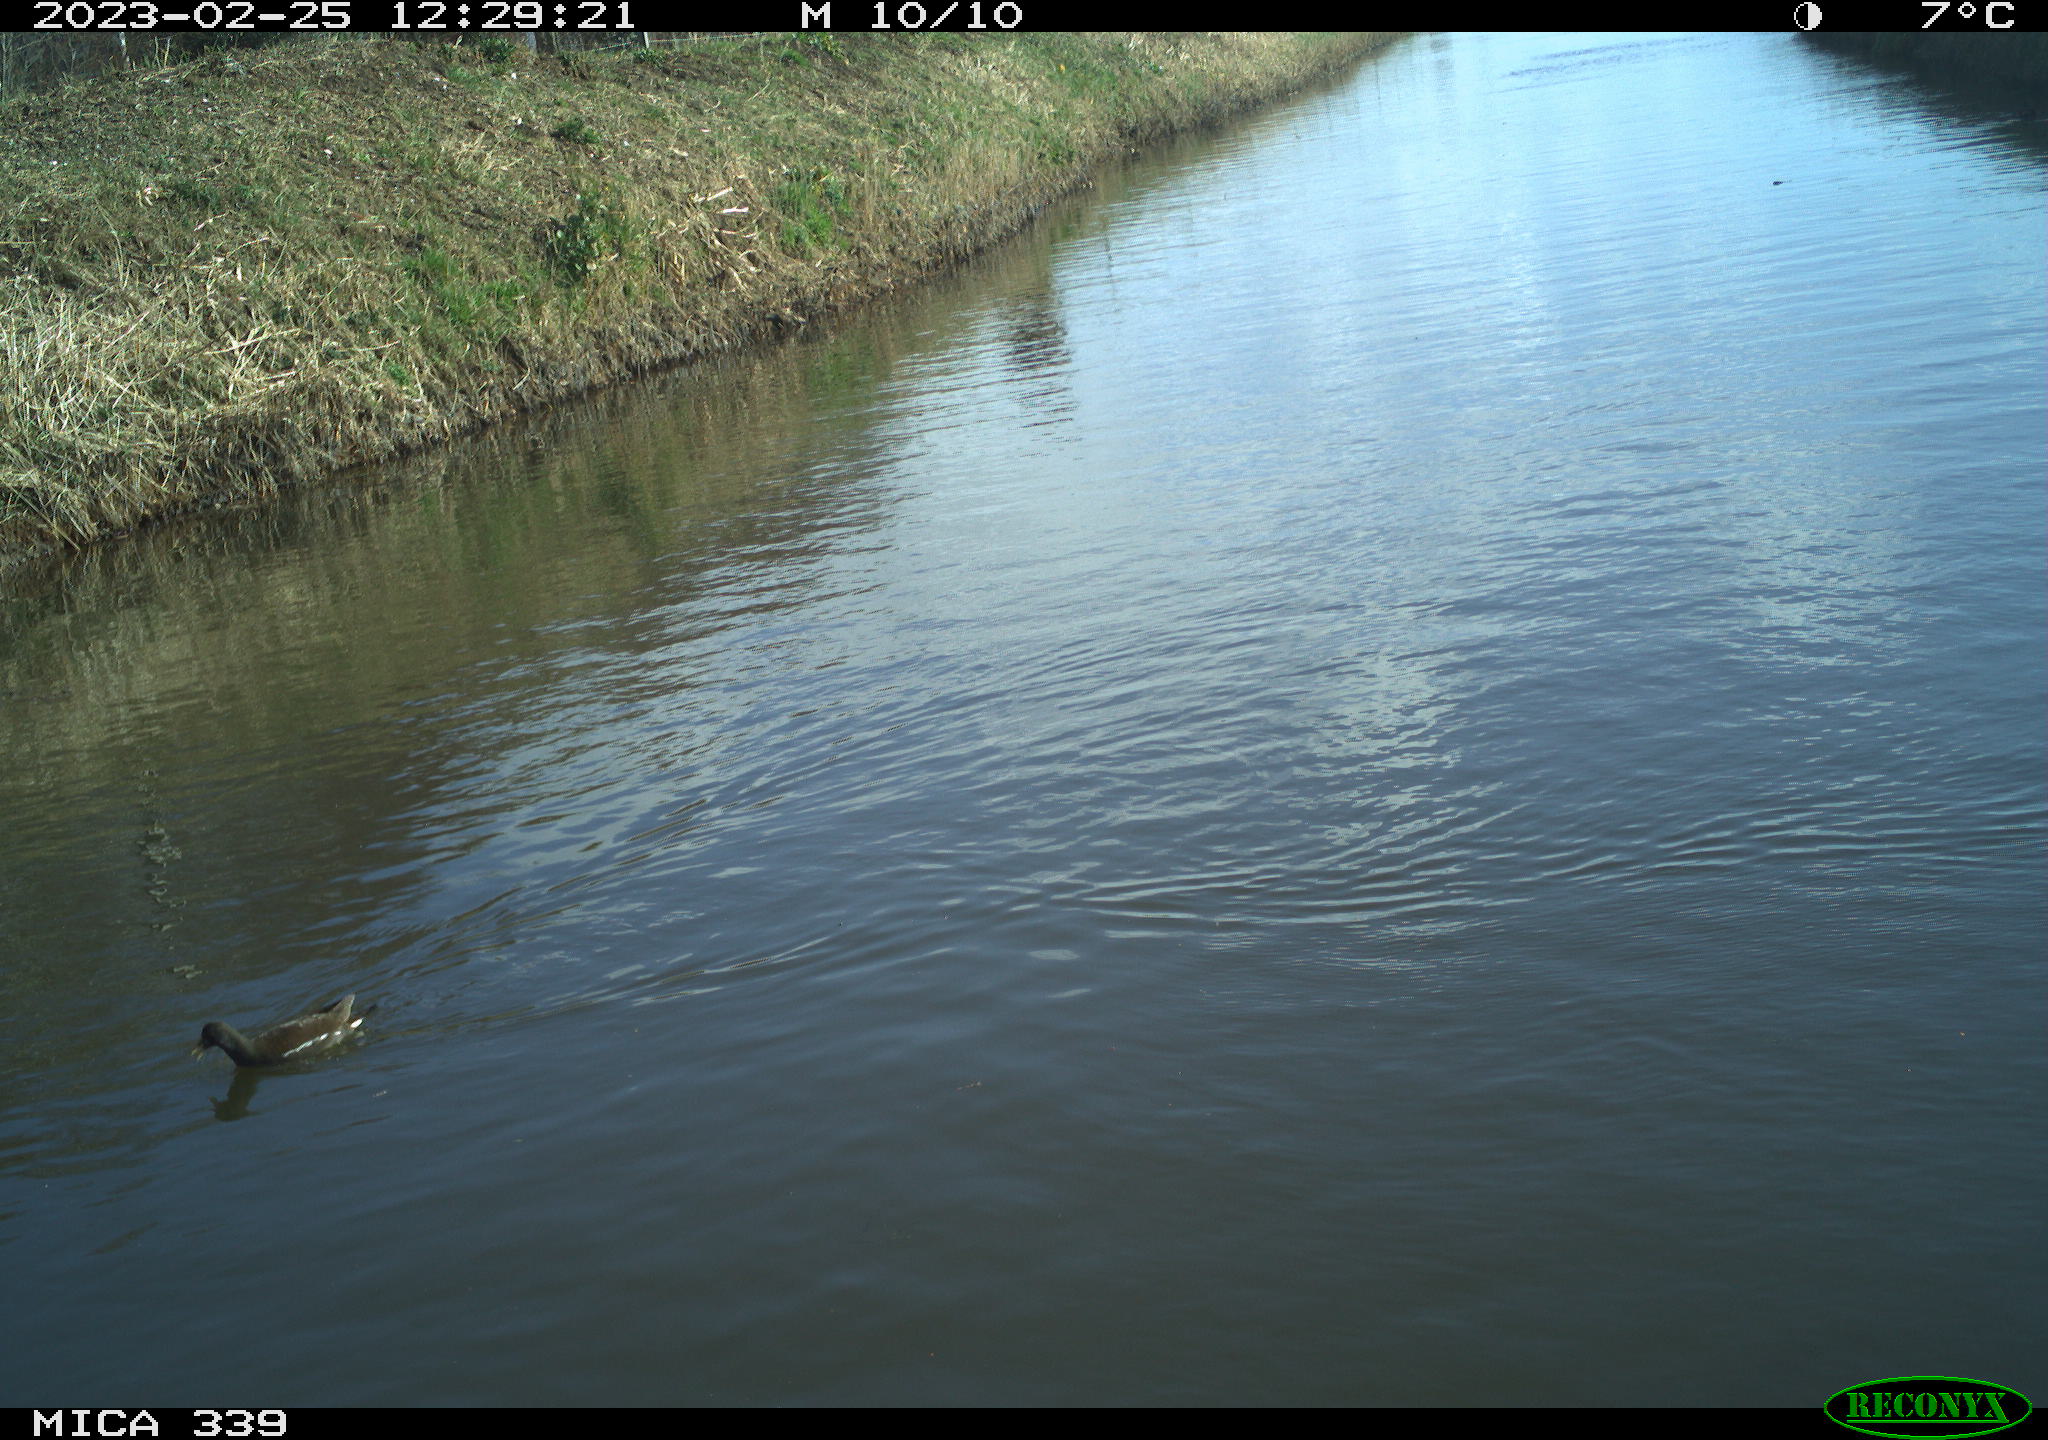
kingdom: Animalia
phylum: Chordata
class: Aves
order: Gruiformes
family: Rallidae
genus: Gallinula
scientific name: Gallinula chloropus
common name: Common moorhen
